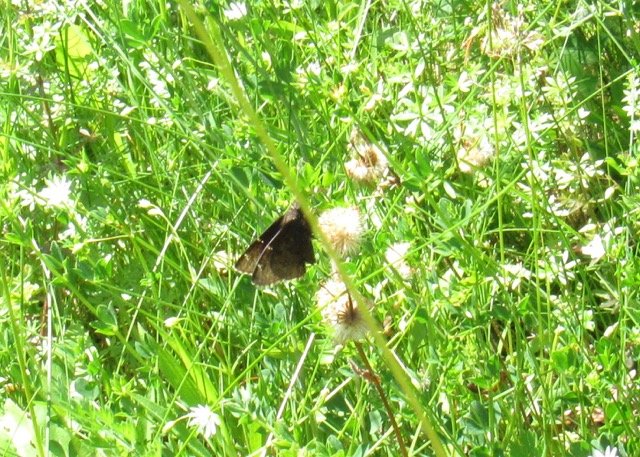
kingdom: Animalia
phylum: Arthropoda
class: Insecta
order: Lepidoptera
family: Hesperiidae
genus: Autochton
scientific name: Autochton
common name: Northern Cloudywing
